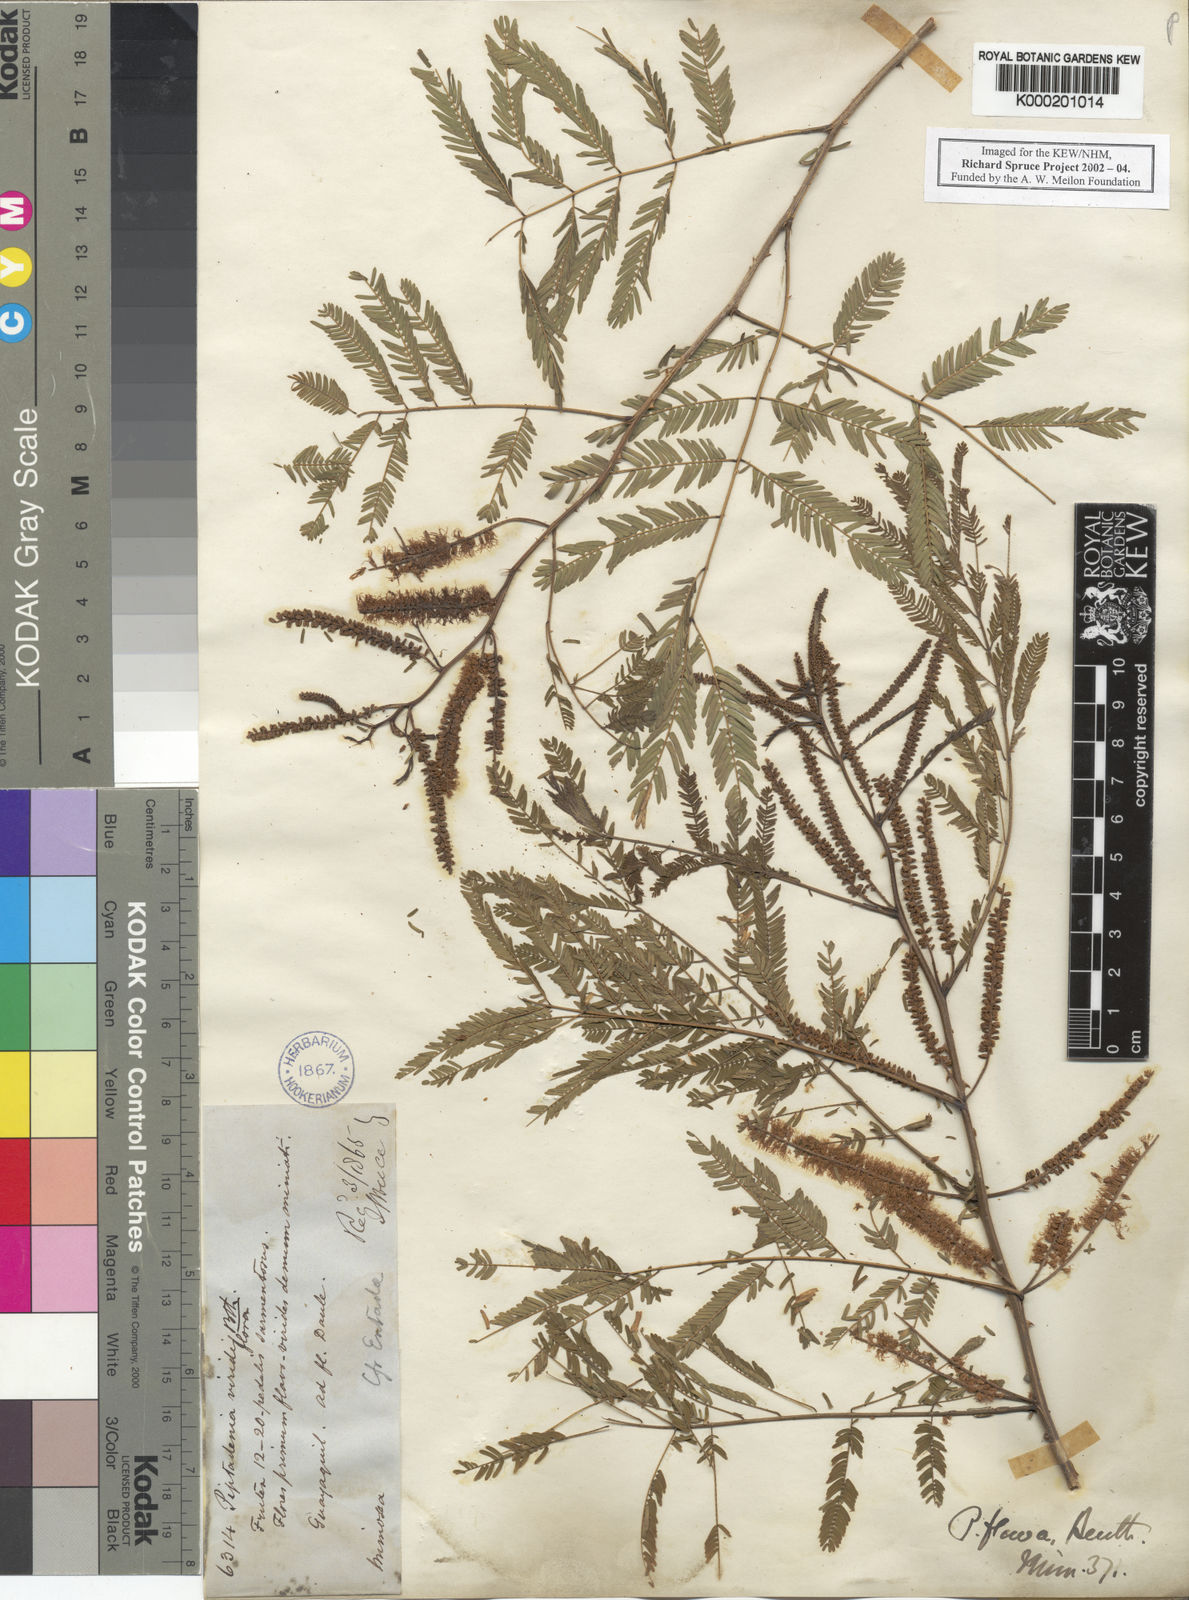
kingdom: Plantae
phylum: Tracheophyta
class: Magnoliopsida
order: Fabales
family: Fabaceae
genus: Lachesiodendron
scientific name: Lachesiodendron viridiflorum
